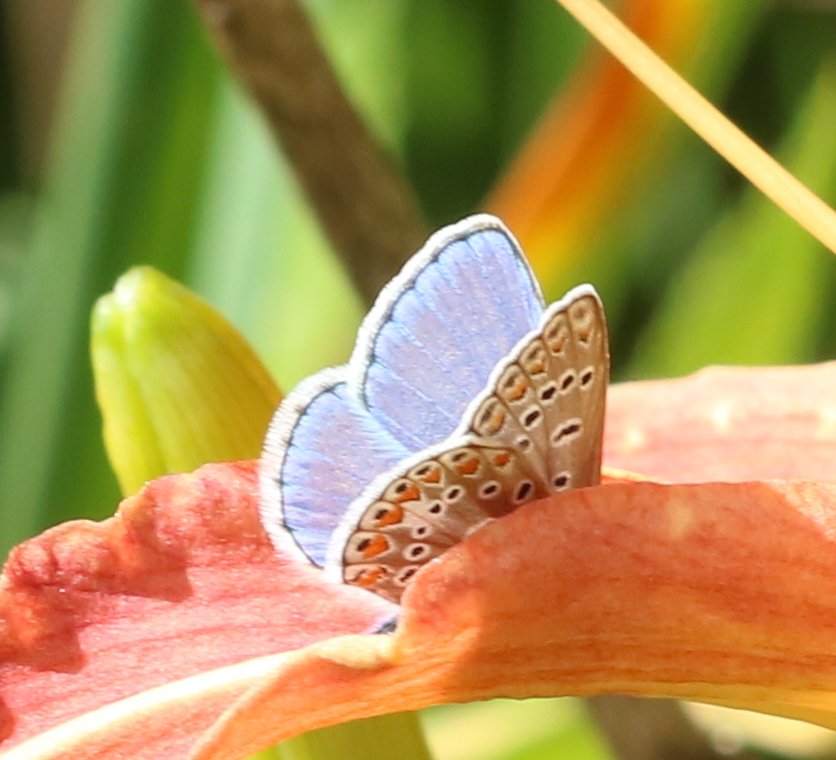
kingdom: Animalia
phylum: Arthropoda
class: Insecta
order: Lepidoptera
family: Lycaenidae
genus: Polyommatus
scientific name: Polyommatus icarus
